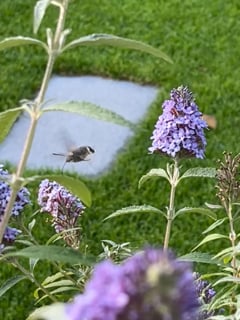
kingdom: Animalia
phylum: Arthropoda
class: Insecta
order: Lepidoptera
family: Sphingidae
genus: Macroglossum
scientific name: Macroglossum stellatarum
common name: Humming-bird hawk-moth
